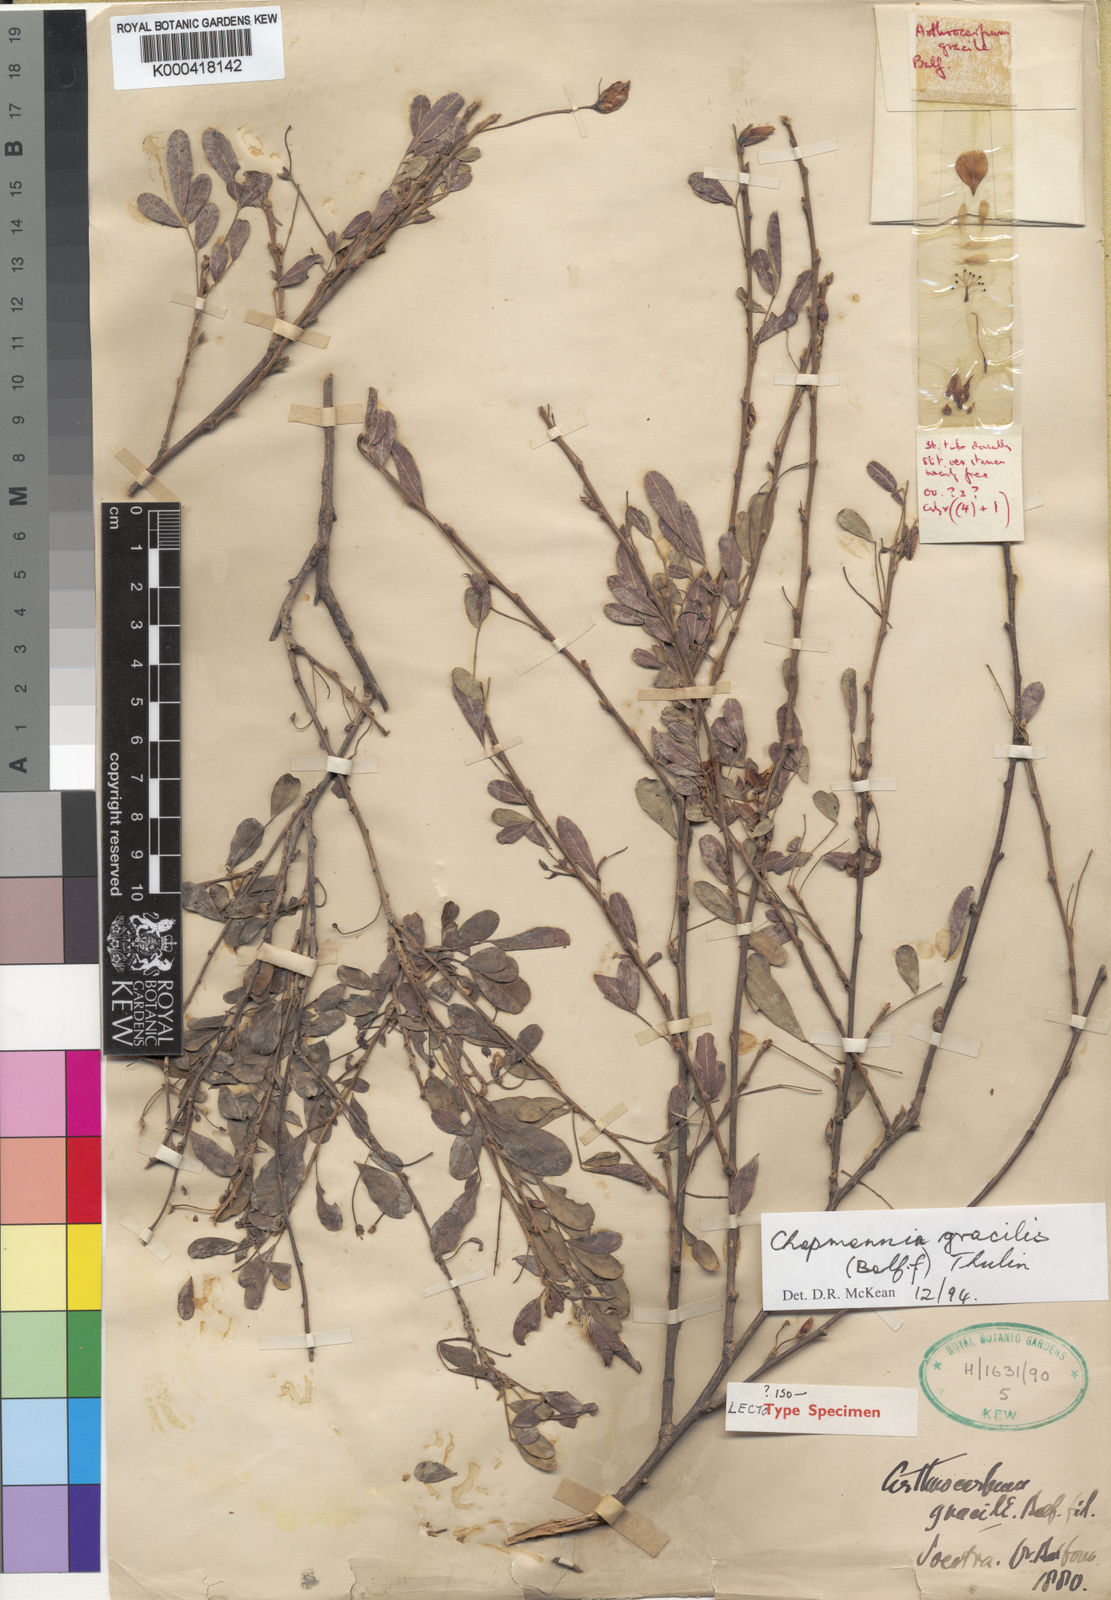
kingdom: Plantae
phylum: Tracheophyta
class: Magnoliopsida
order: Fabales
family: Fabaceae
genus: Chapmannia
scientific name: Chapmannia gracilis
